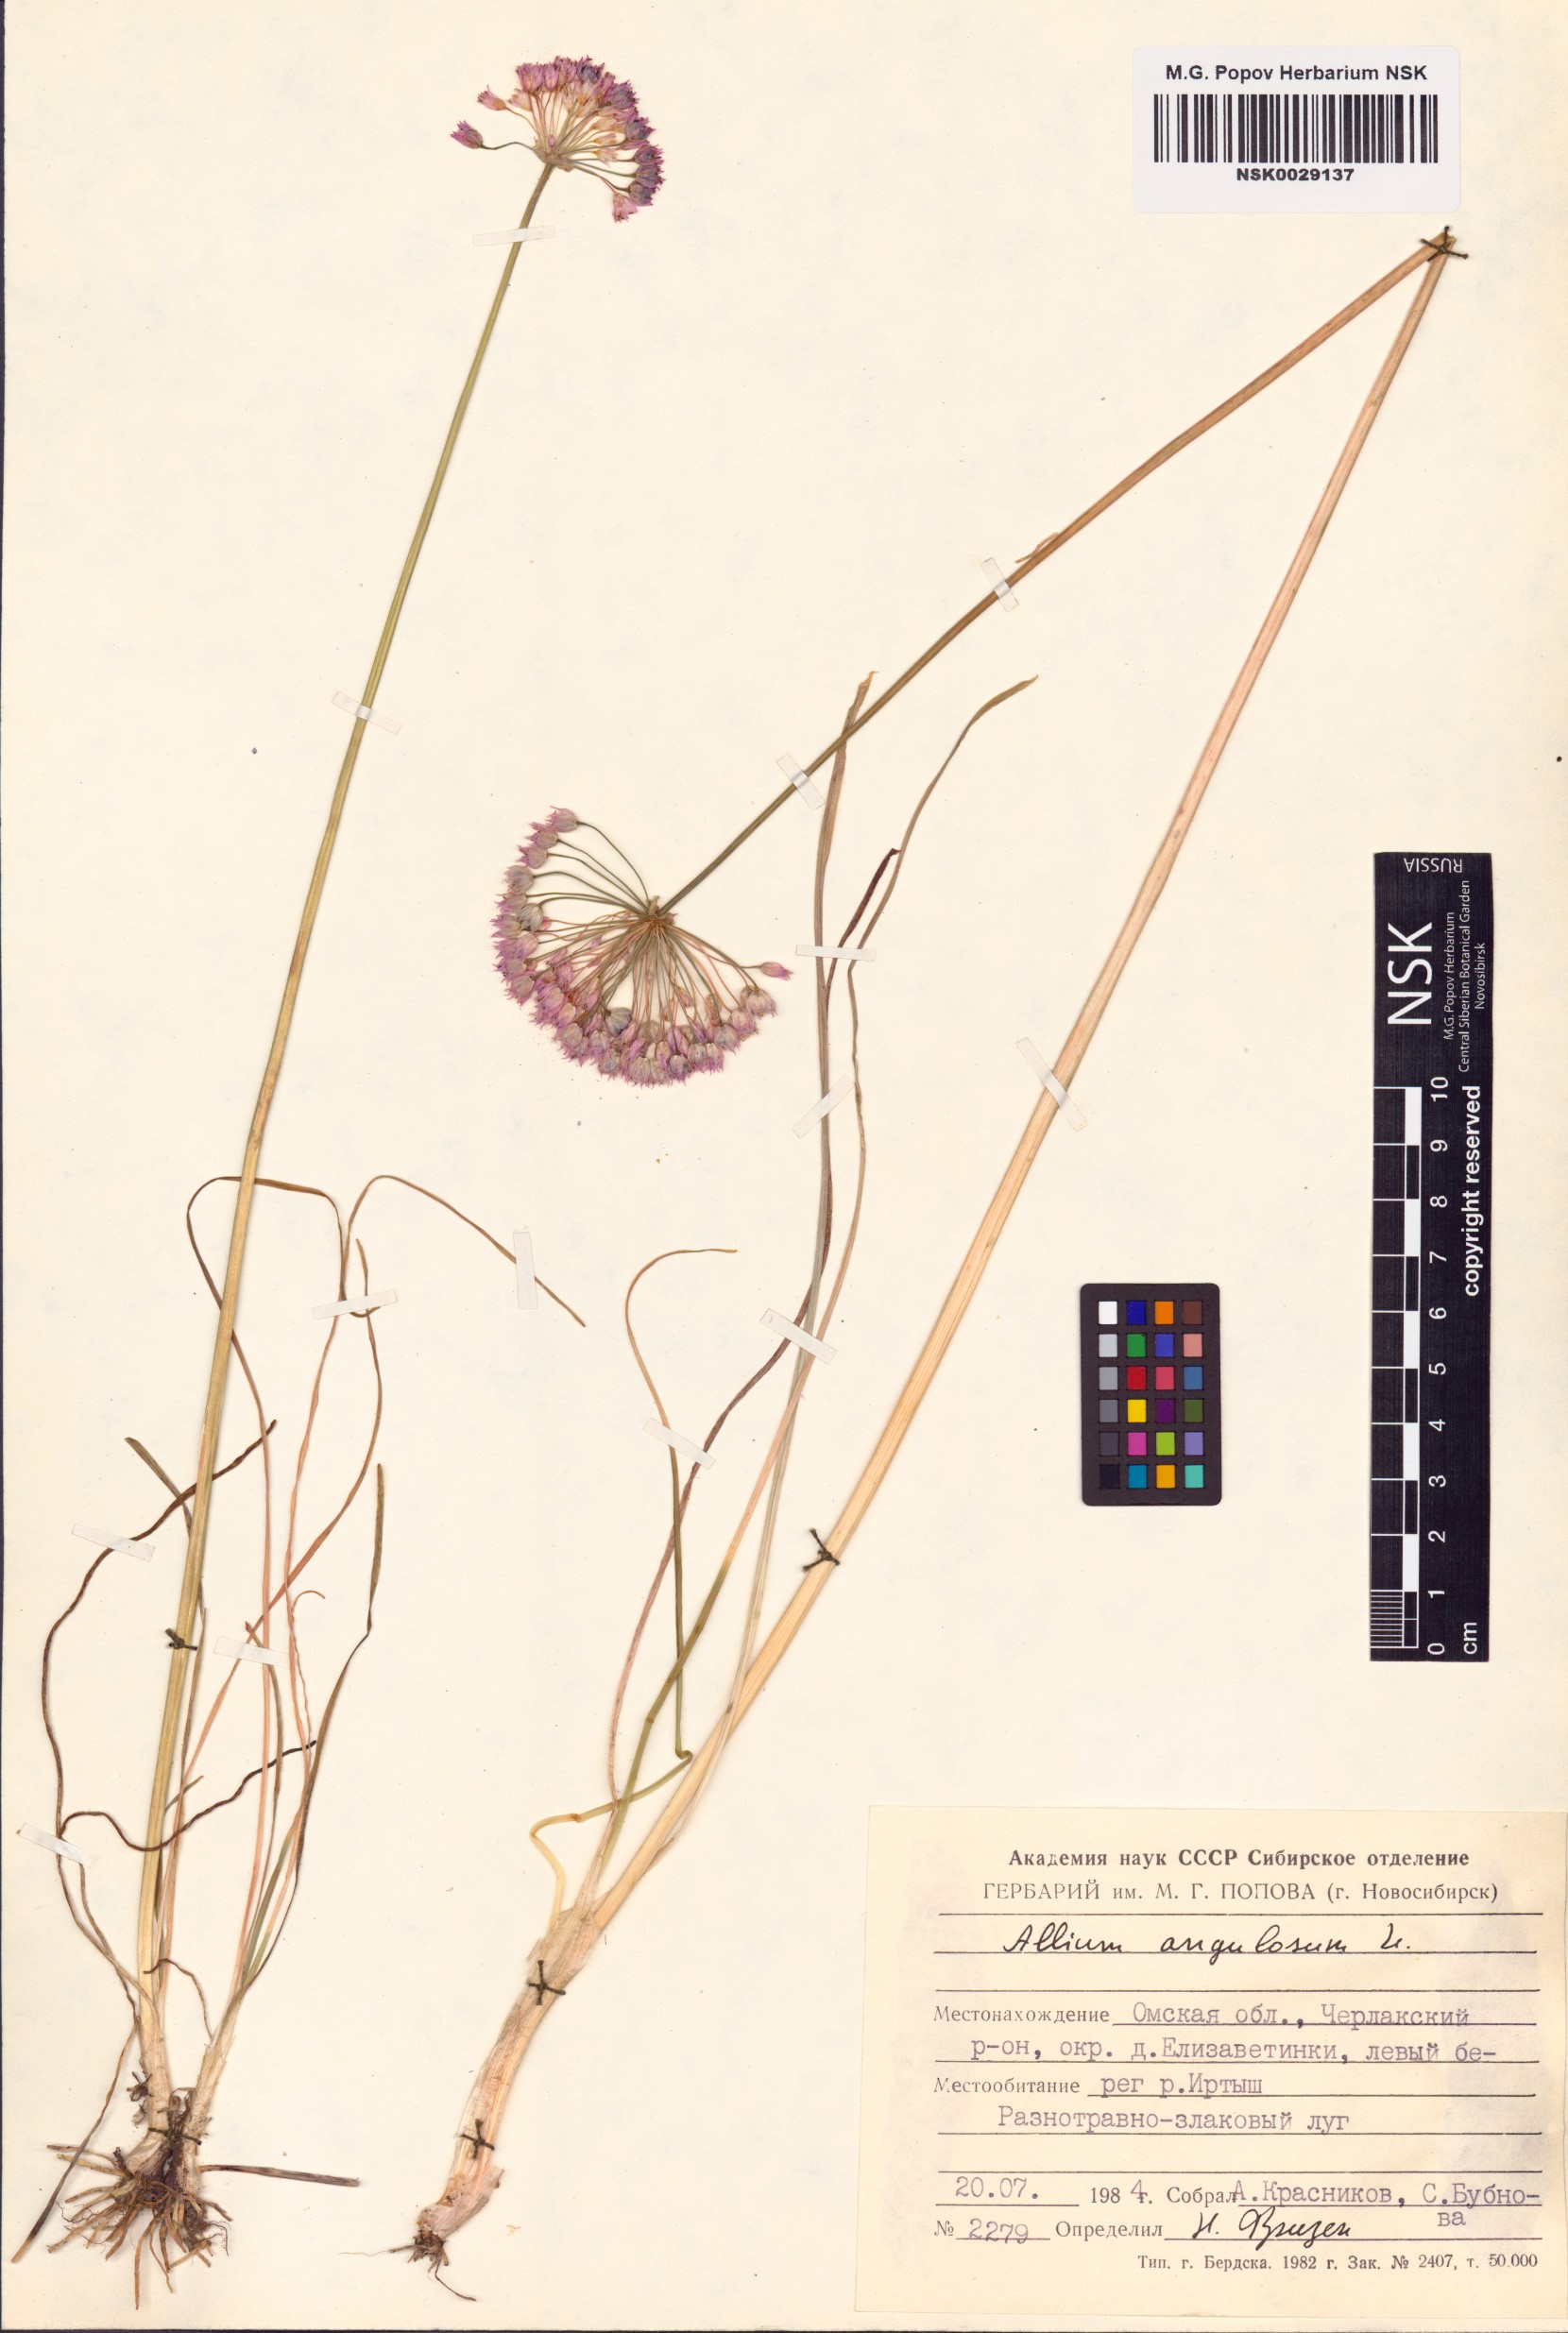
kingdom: Plantae
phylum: Tracheophyta
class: Liliopsida
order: Asparagales
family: Amaryllidaceae
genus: Allium
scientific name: Allium angulosum
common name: Mouse garlic
